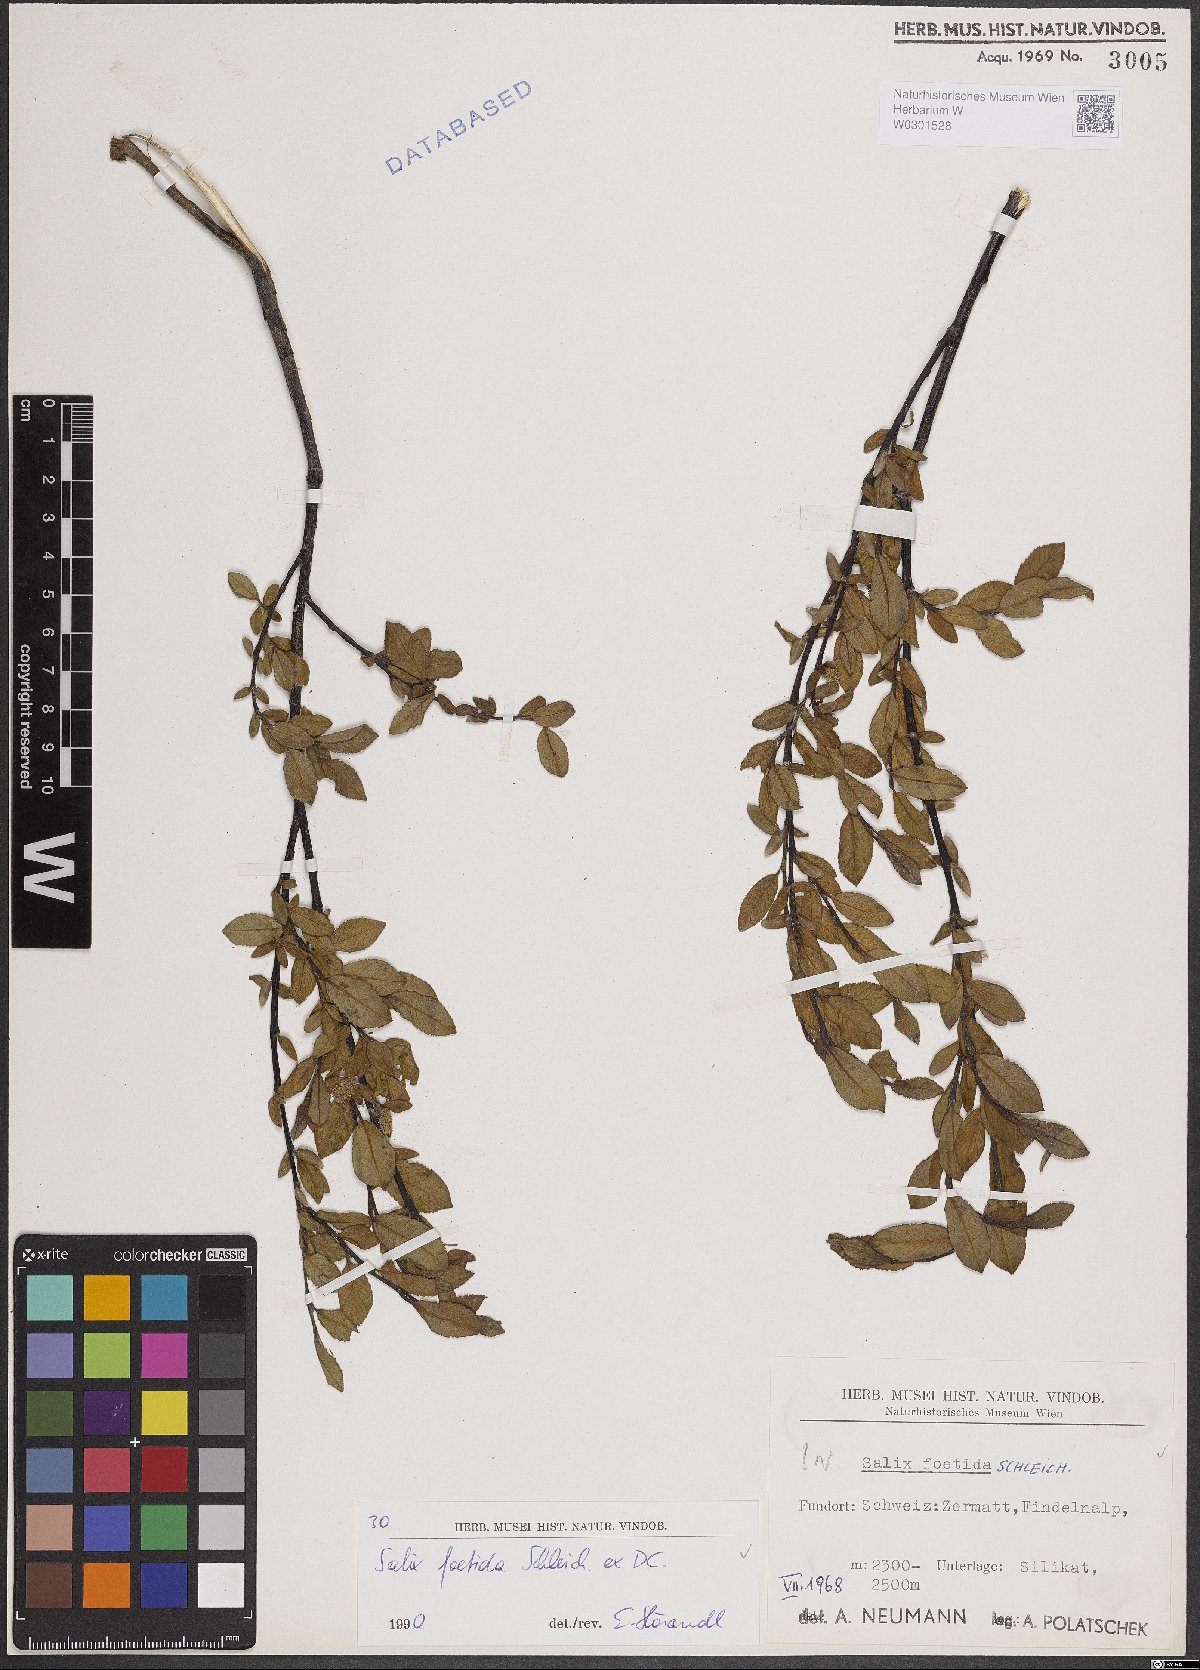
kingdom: Plantae
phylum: Tracheophyta
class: Magnoliopsida
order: Malpighiales
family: Salicaceae
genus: Salix
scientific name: Salix foetida
